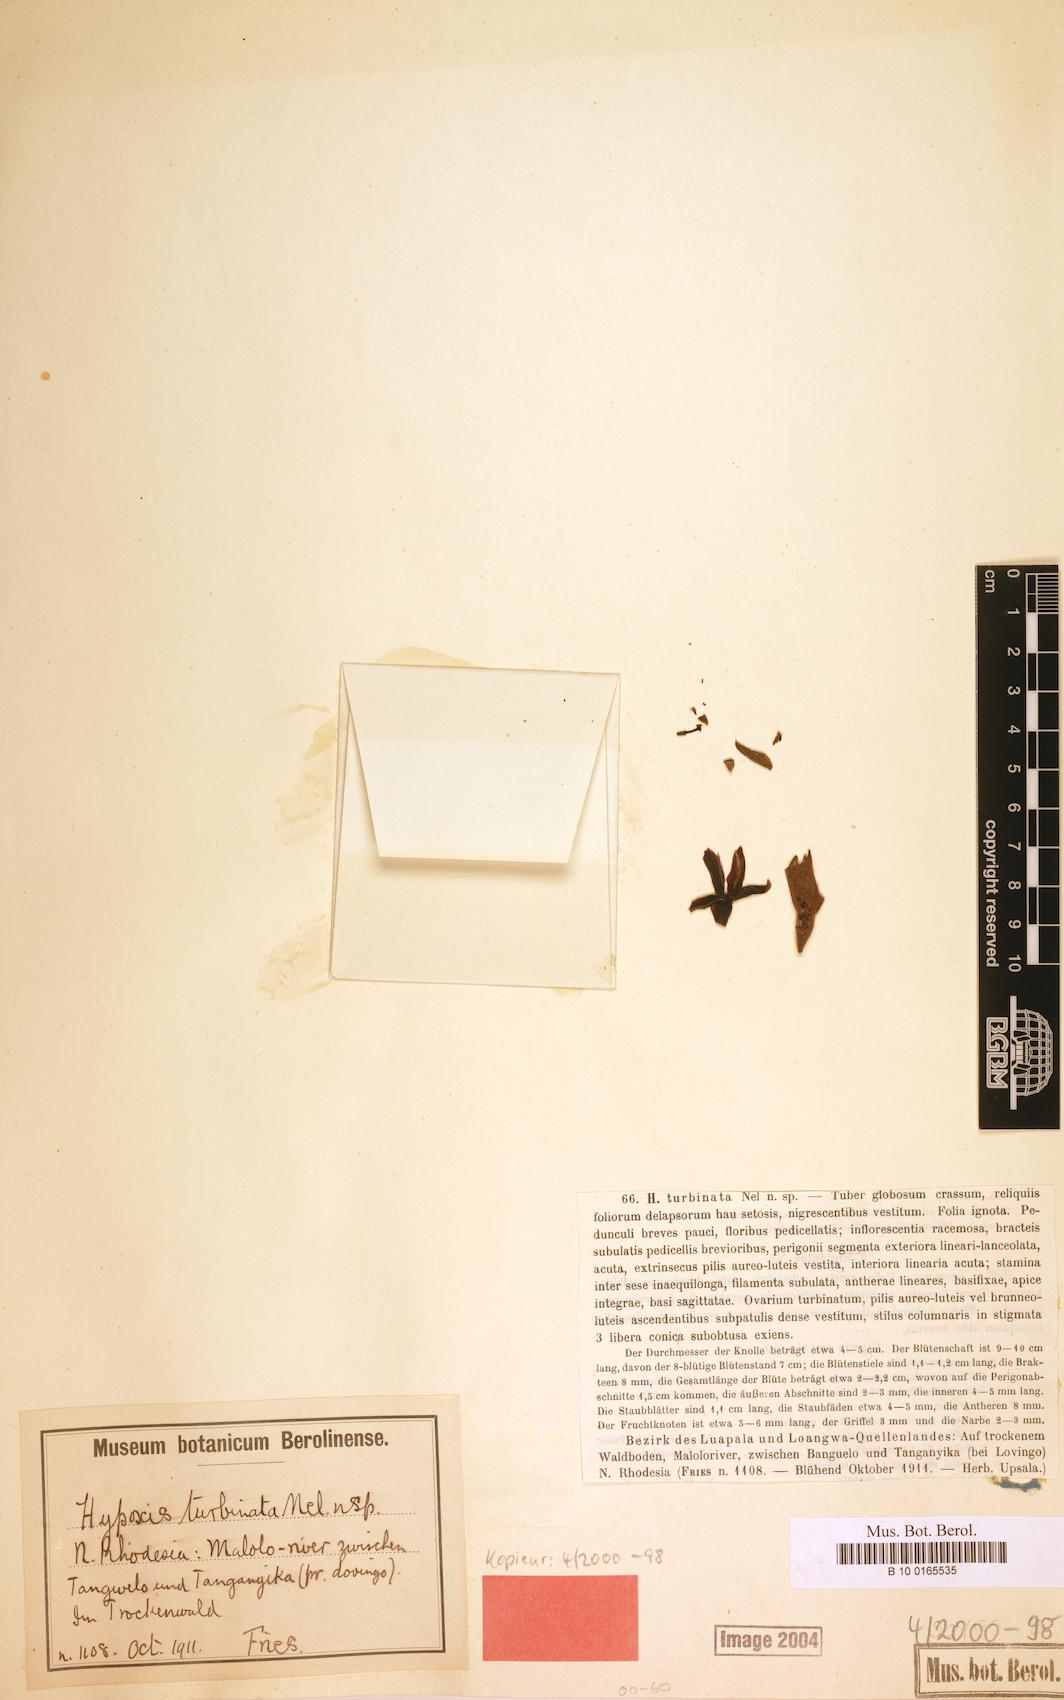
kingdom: Plantae
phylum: Tracheophyta
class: Liliopsida
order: Asparagales
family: Hypoxidaceae
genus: Hypoxis
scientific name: Hypoxis goetzei
